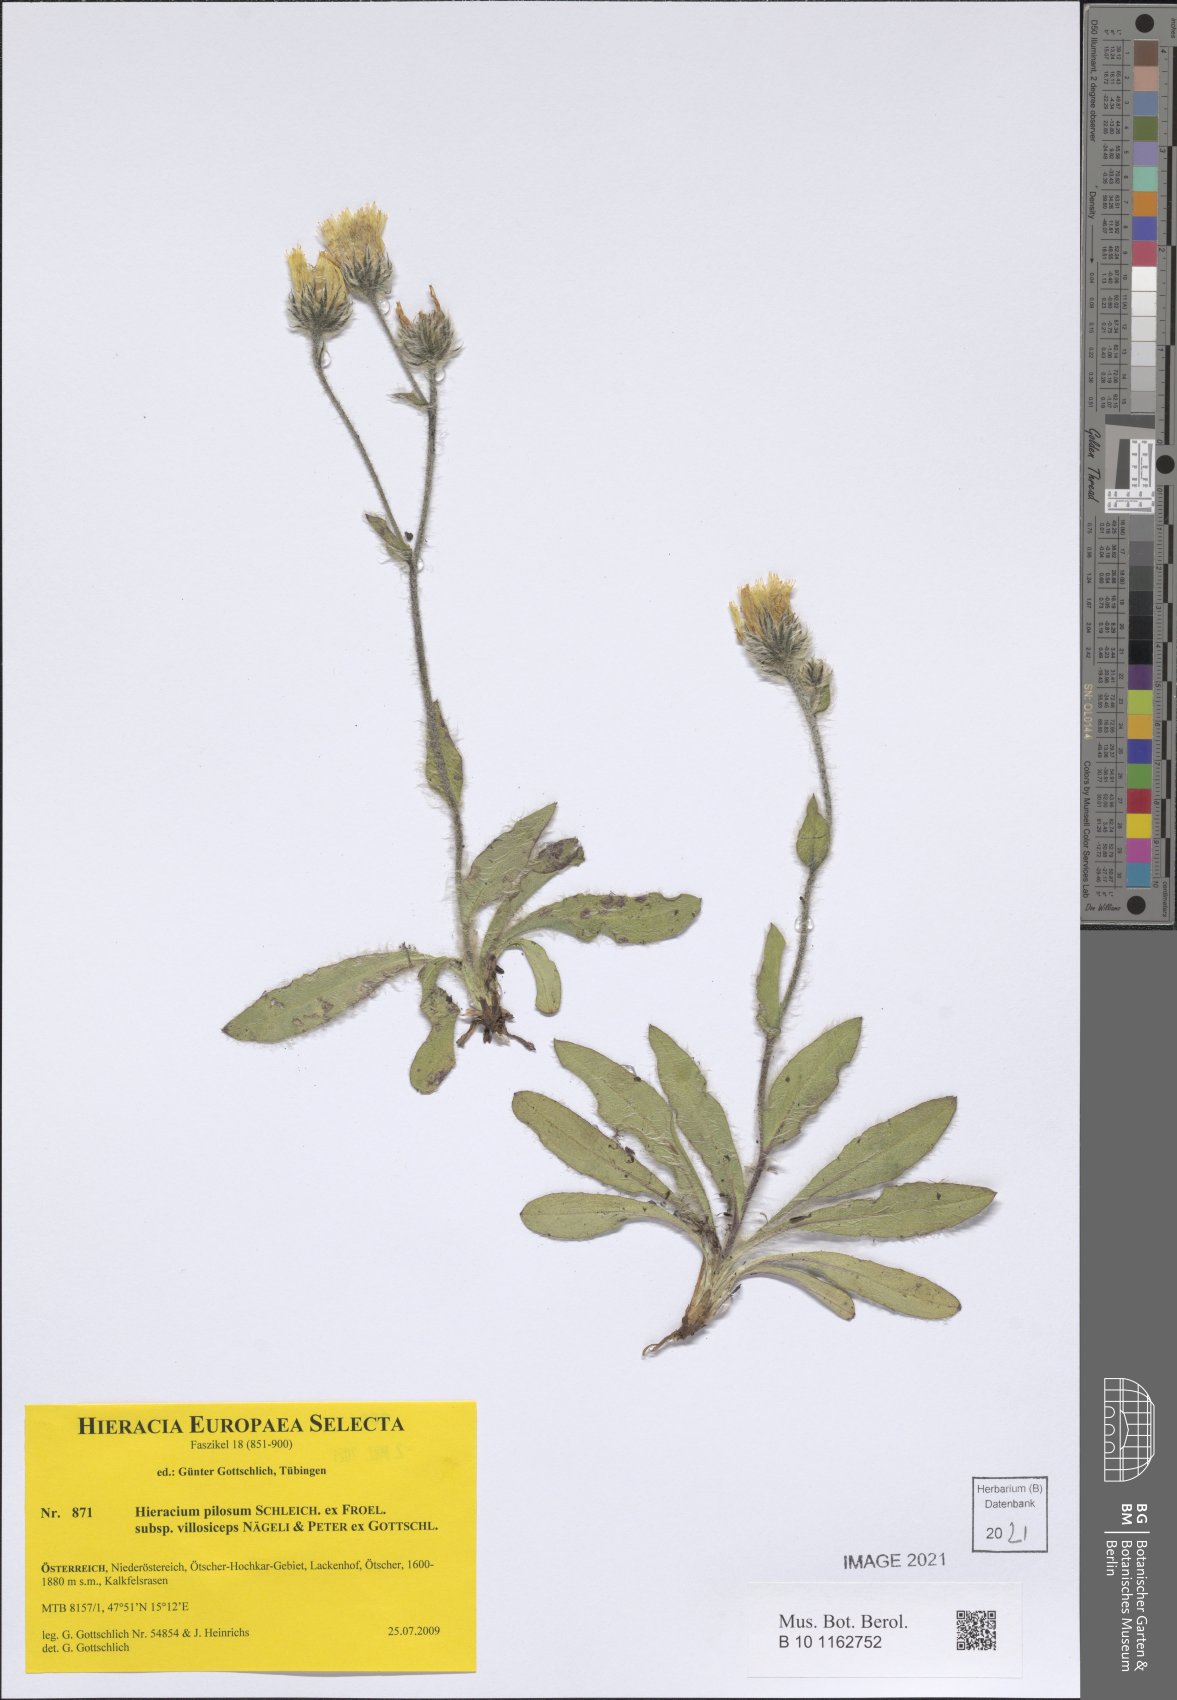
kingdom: Plantae
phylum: Tracheophyta
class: Magnoliopsida
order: Asterales
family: Asteraceae
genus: Hieracium
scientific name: Hieracium pilosum
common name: Fimbriate-pitted hawkweed
